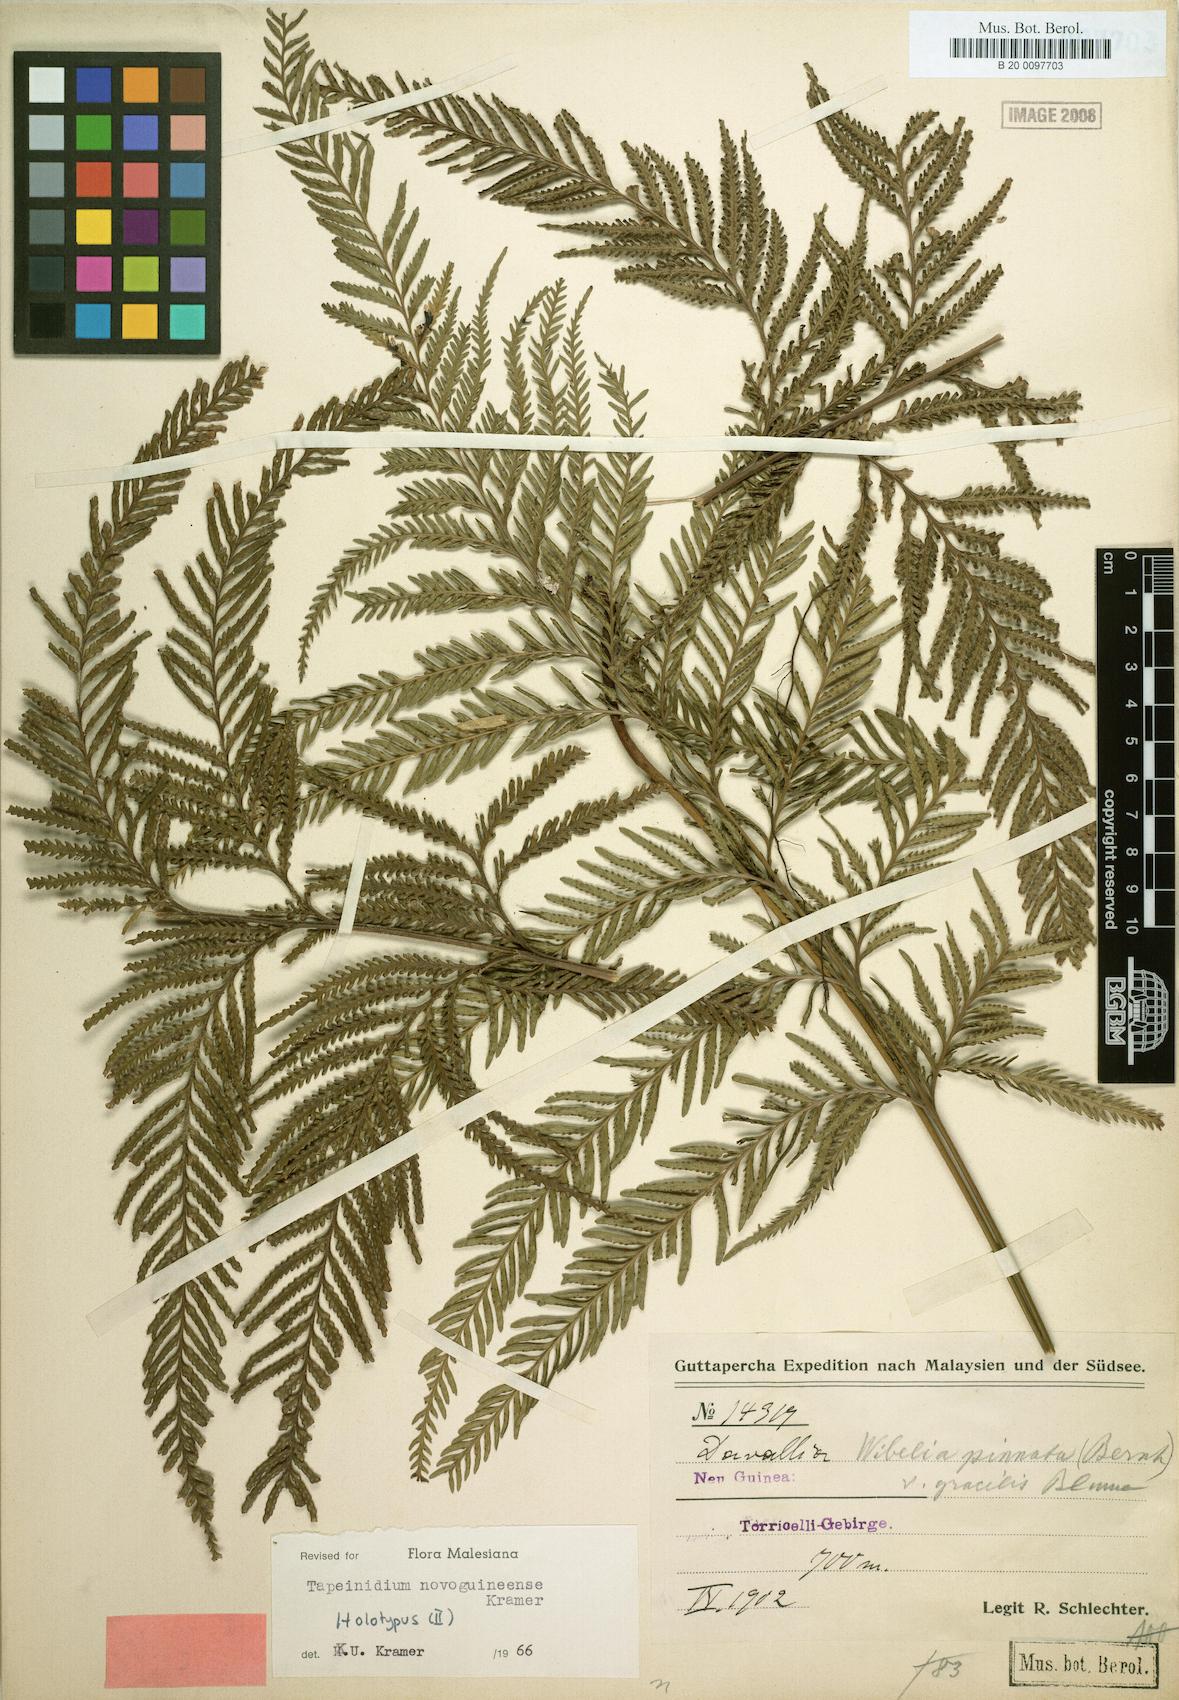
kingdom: Plantae
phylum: Tracheophyta
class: Polypodiopsida
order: Polypodiales
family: Lindsaeaceae
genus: Tapeinidium
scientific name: Tapeinidium novoguineense
